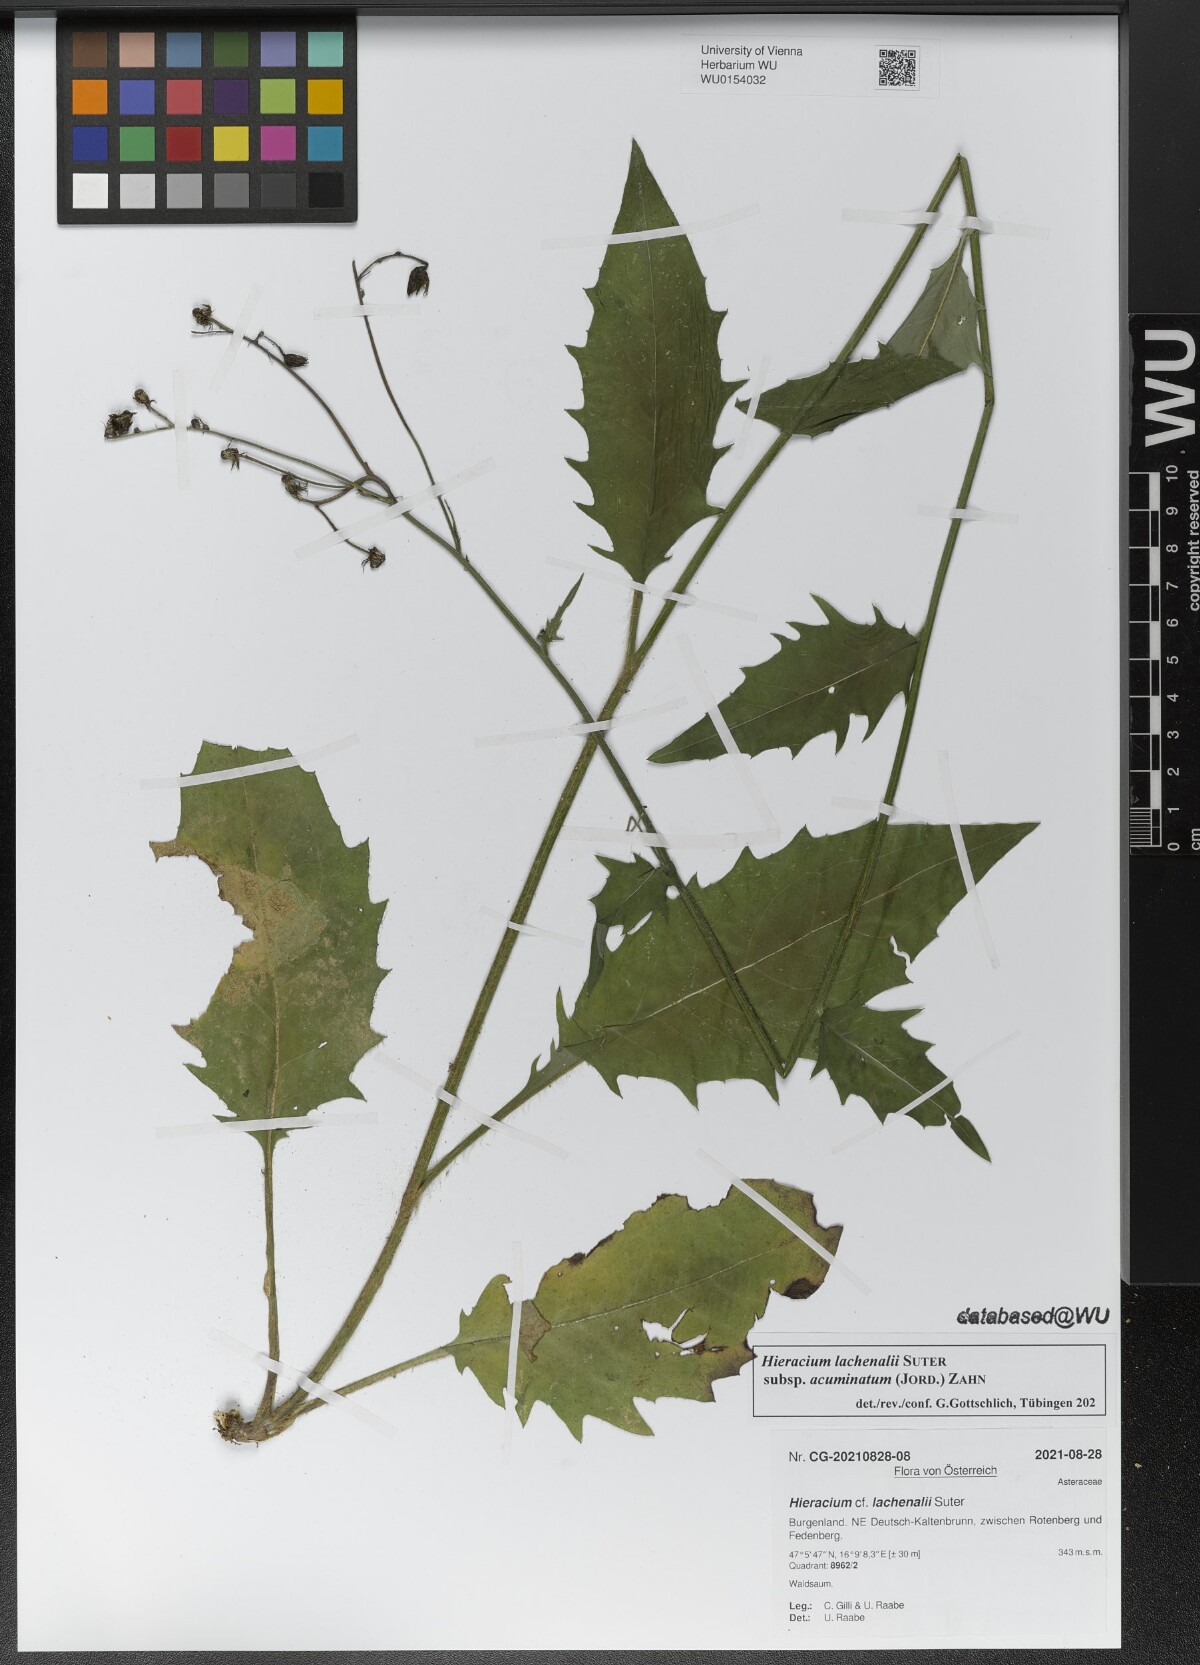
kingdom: Plantae
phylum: Tracheophyta
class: Magnoliopsida
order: Asterales
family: Asteraceae
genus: Hieracium
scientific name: Hieracium lachenalii
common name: Common hawkweed
